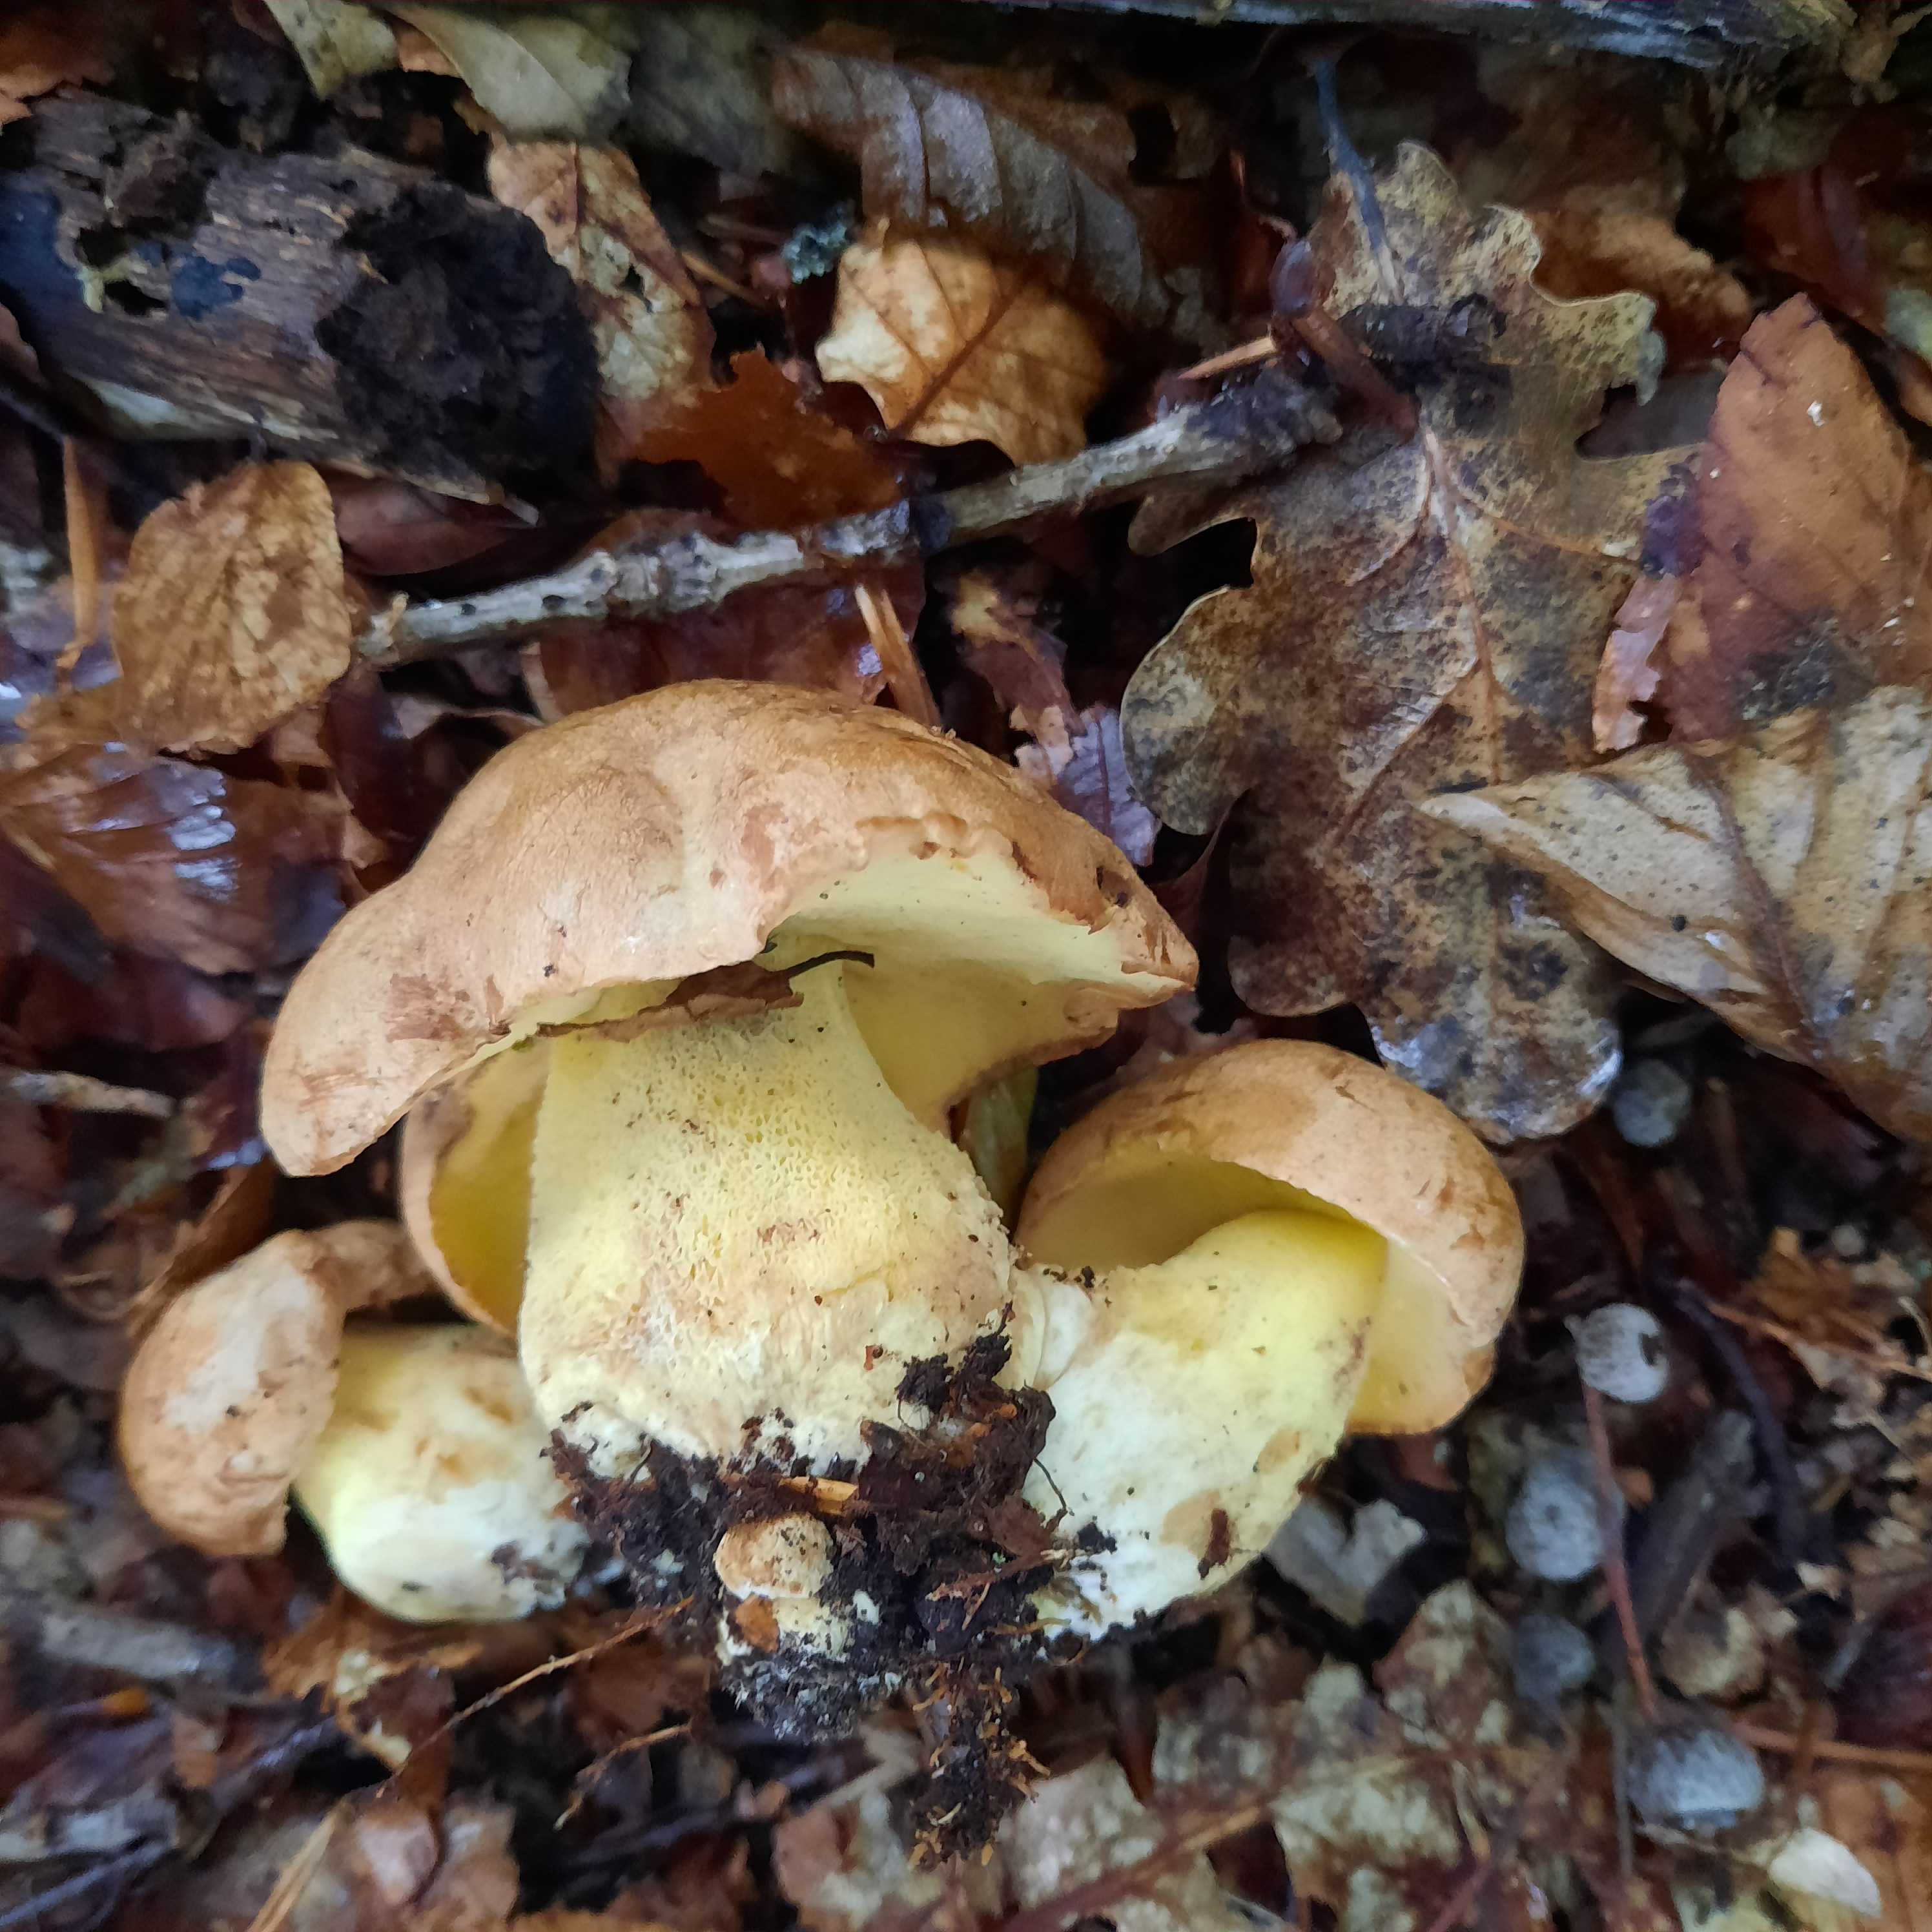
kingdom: Fungi
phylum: Basidiomycota
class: Agaricomycetes
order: Boletales
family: Boletaceae
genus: Butyriboletus
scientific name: Butyriboletus appendiculatus
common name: tenstokket rørhat
